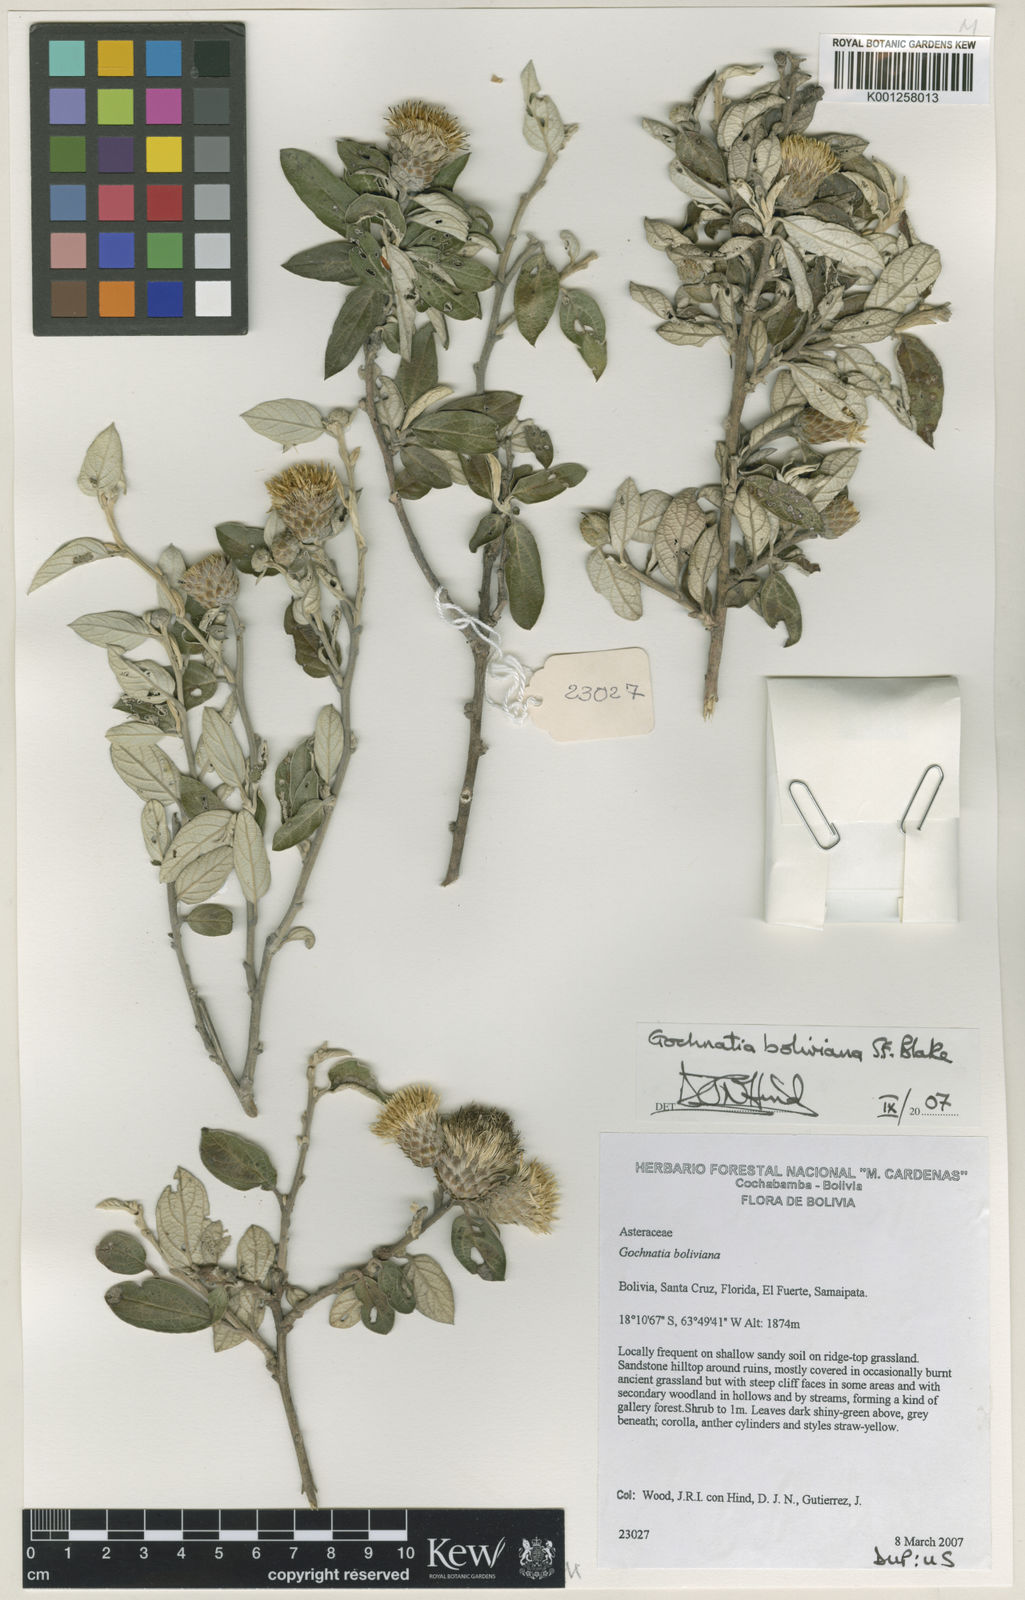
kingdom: Plantae
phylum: Tracheophyta
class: Magnoliopsida
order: Asterales
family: Asteraceae
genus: Gochnatia
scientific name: Gochnatia boliviana
